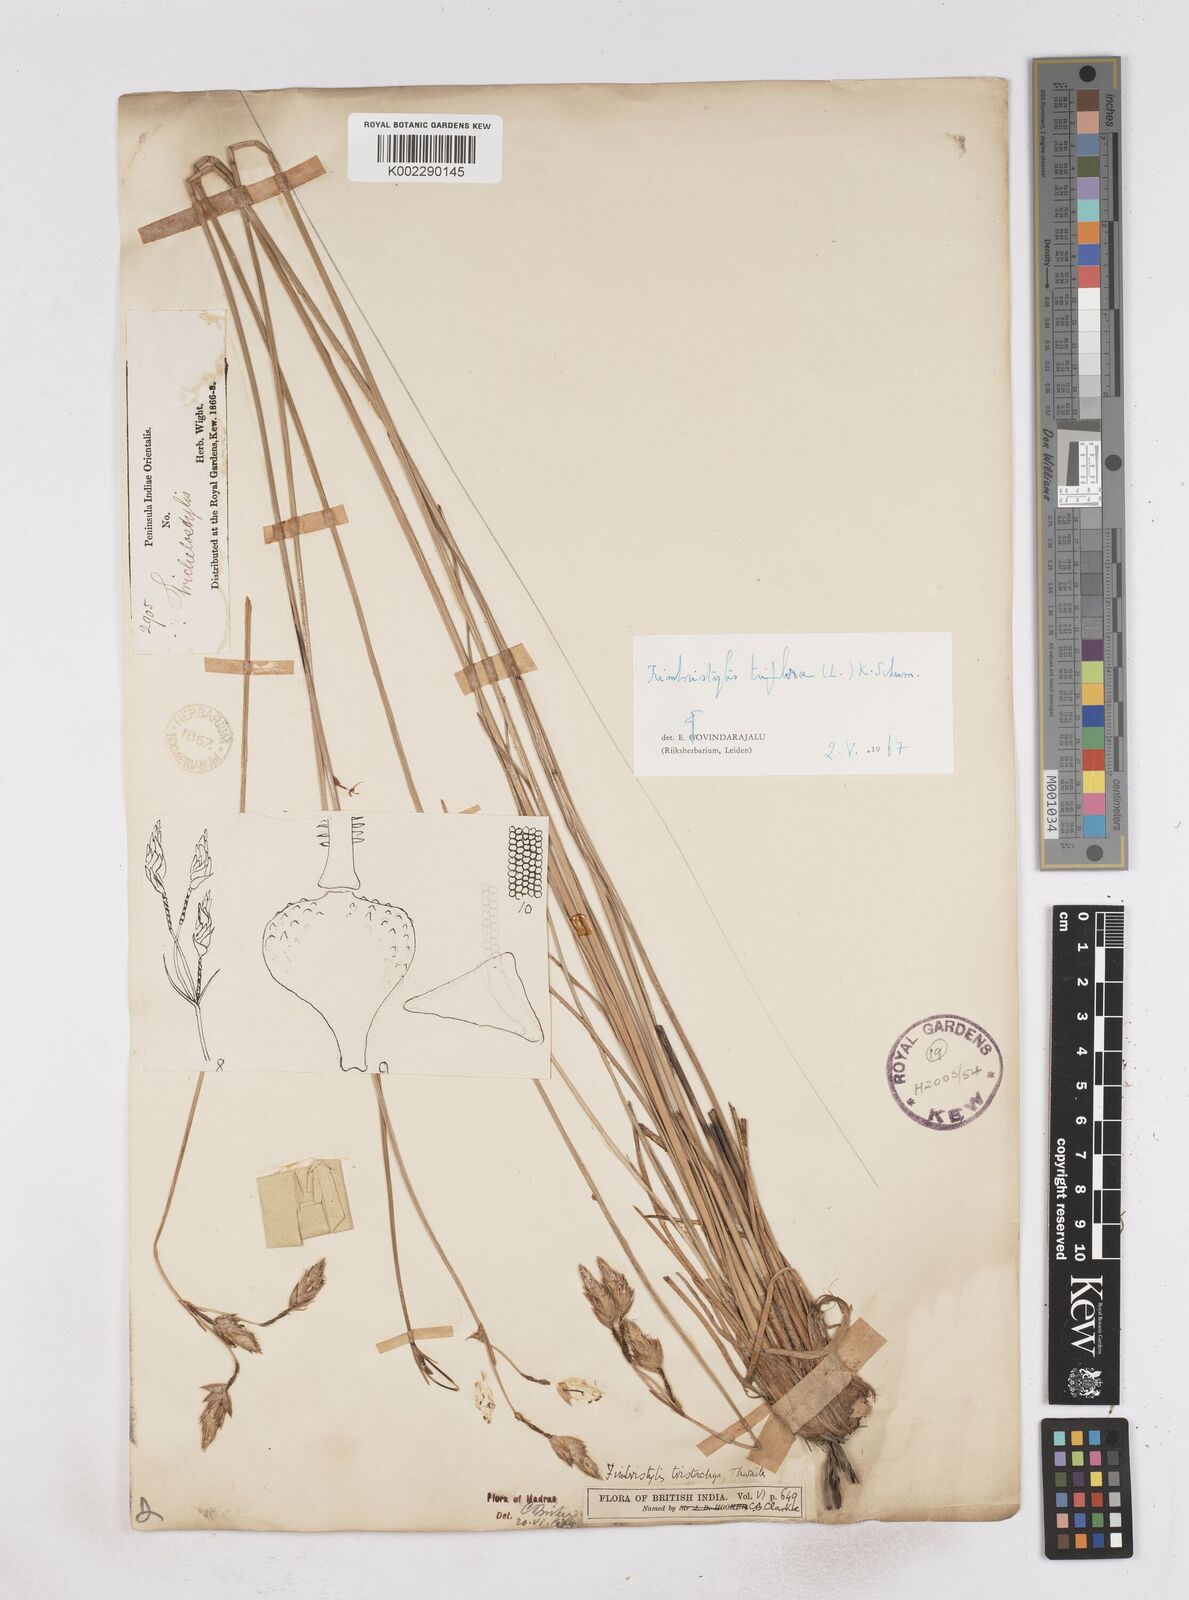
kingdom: Plantae
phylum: Tracheophyta
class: Liliopsida
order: Poales
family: Cyperaceae
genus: Abildgaardia
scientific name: Abildgaardia triflora
